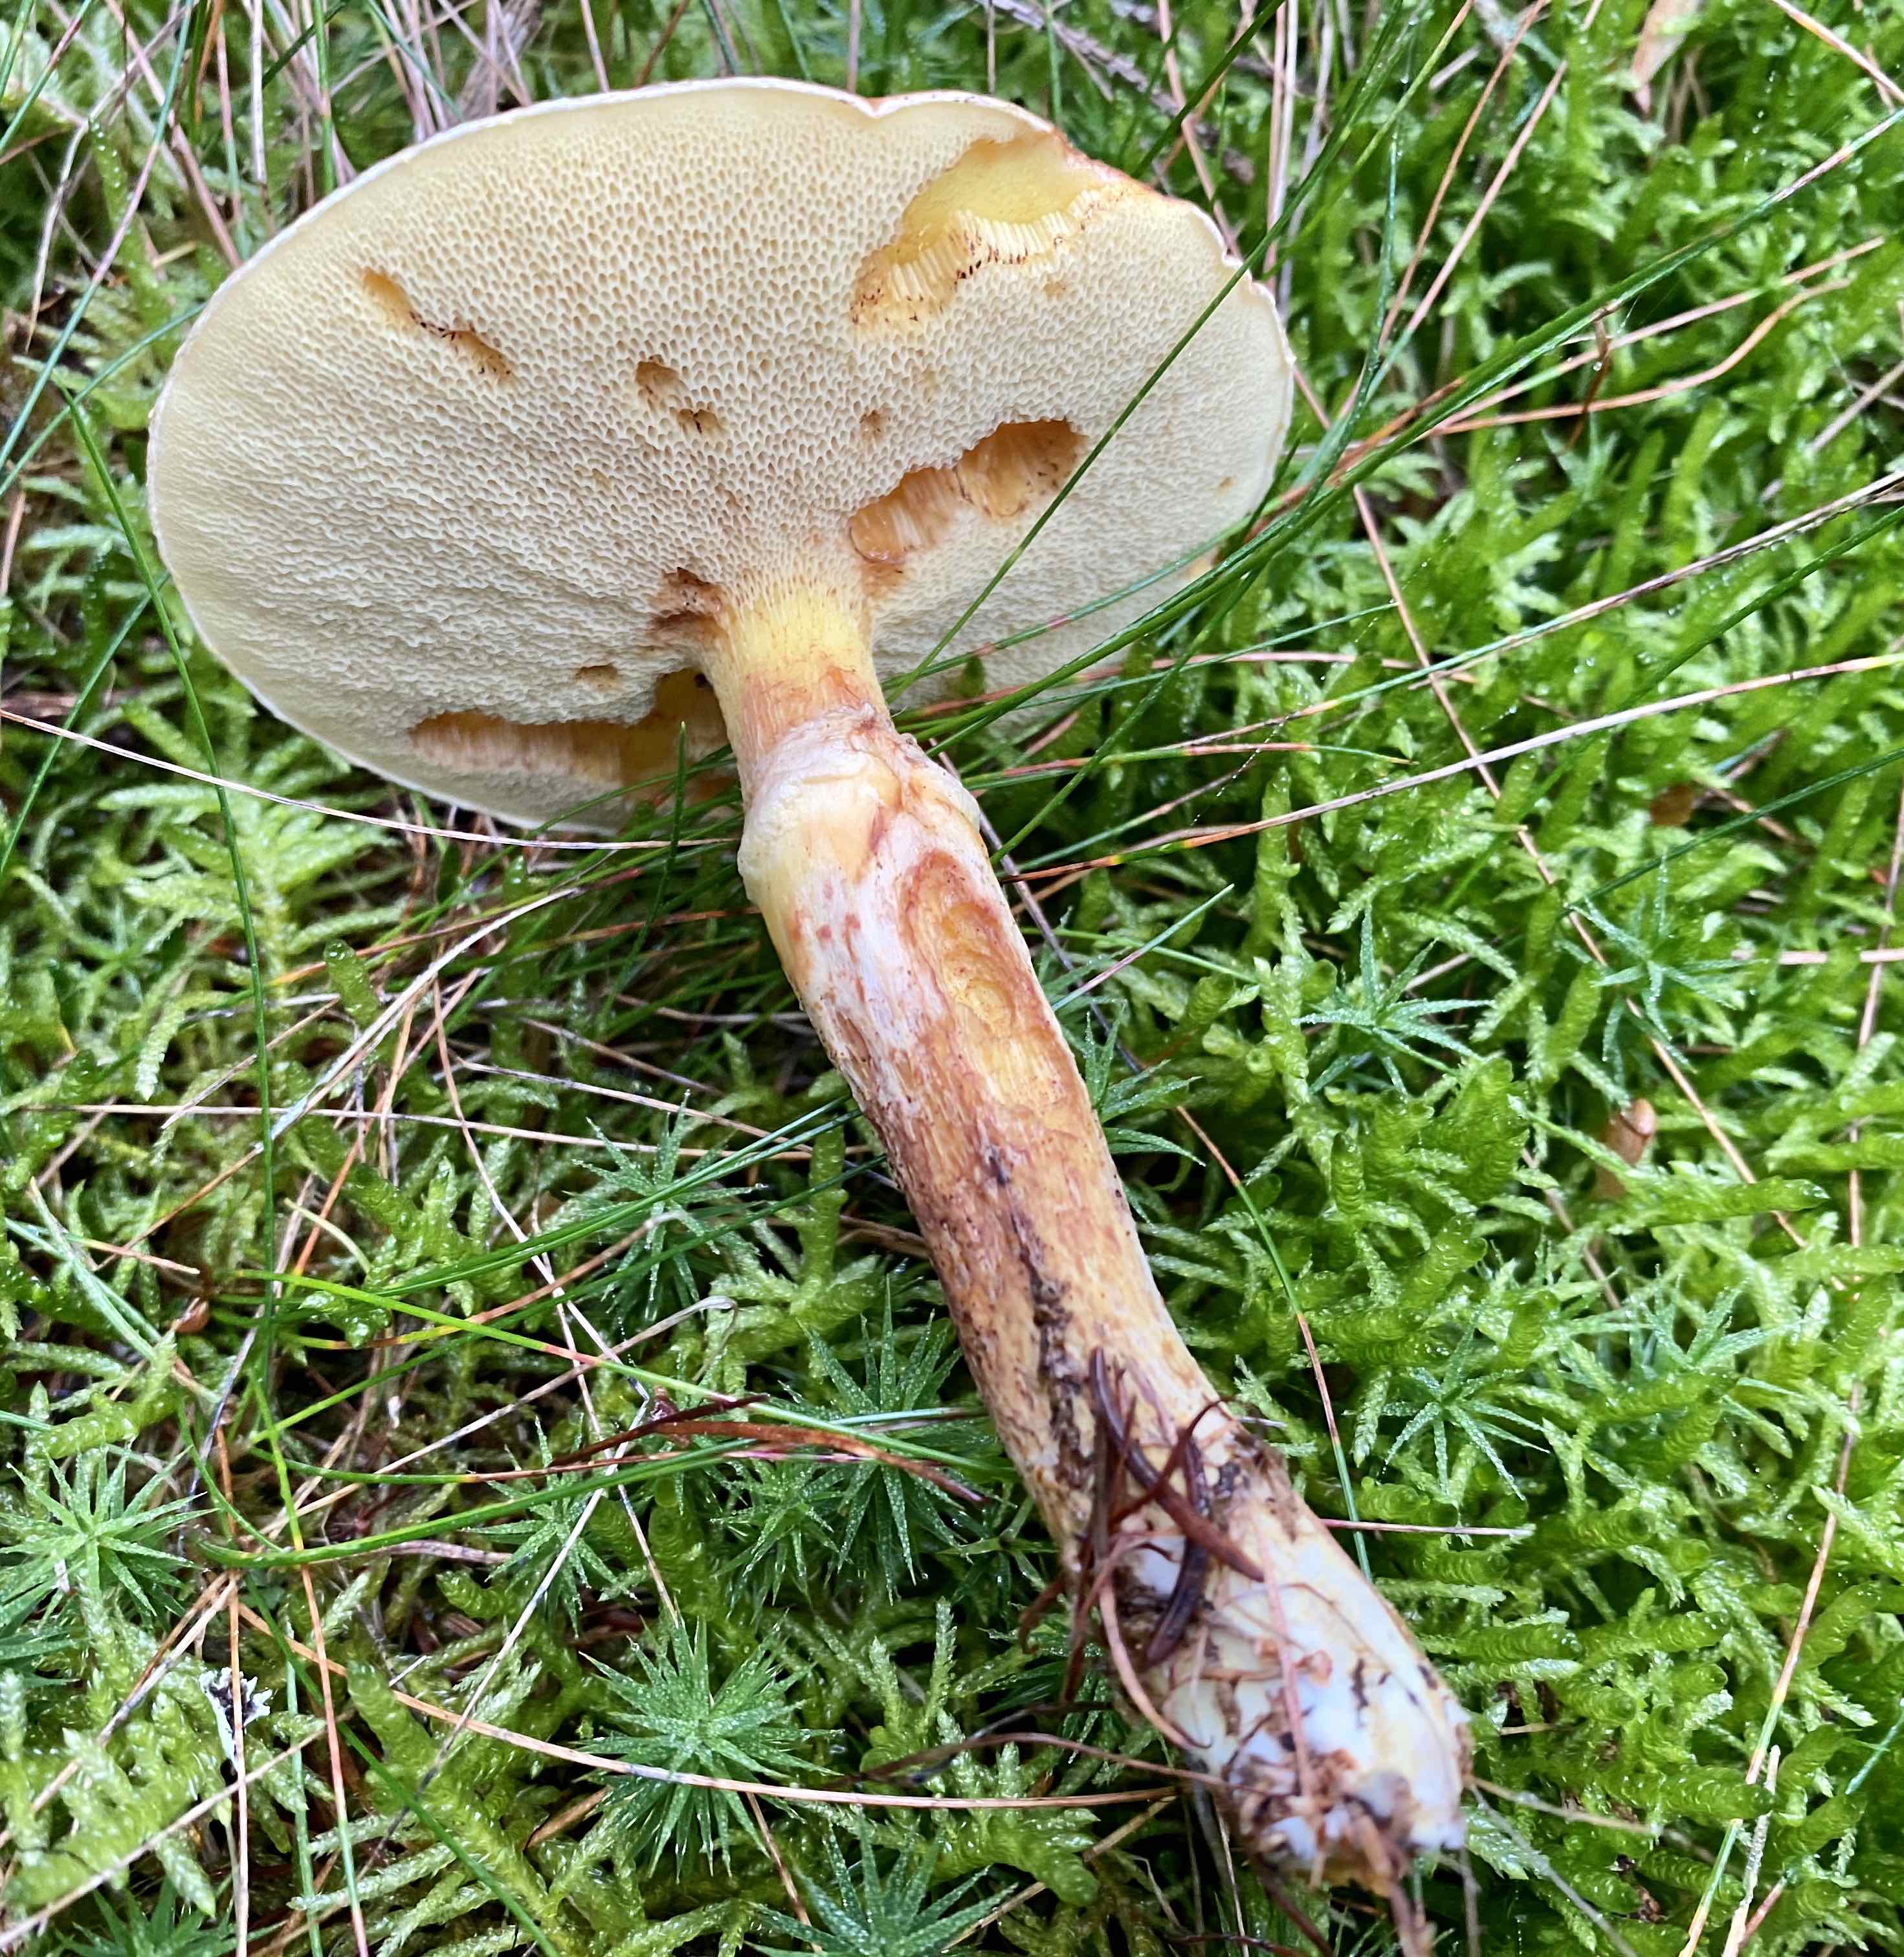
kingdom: Fungi
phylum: Basidiomycota
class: Agaricomycetes
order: Boletales
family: Suillaceae
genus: Suillus
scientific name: Suillus grevillei
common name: lærke-slimrørhat
